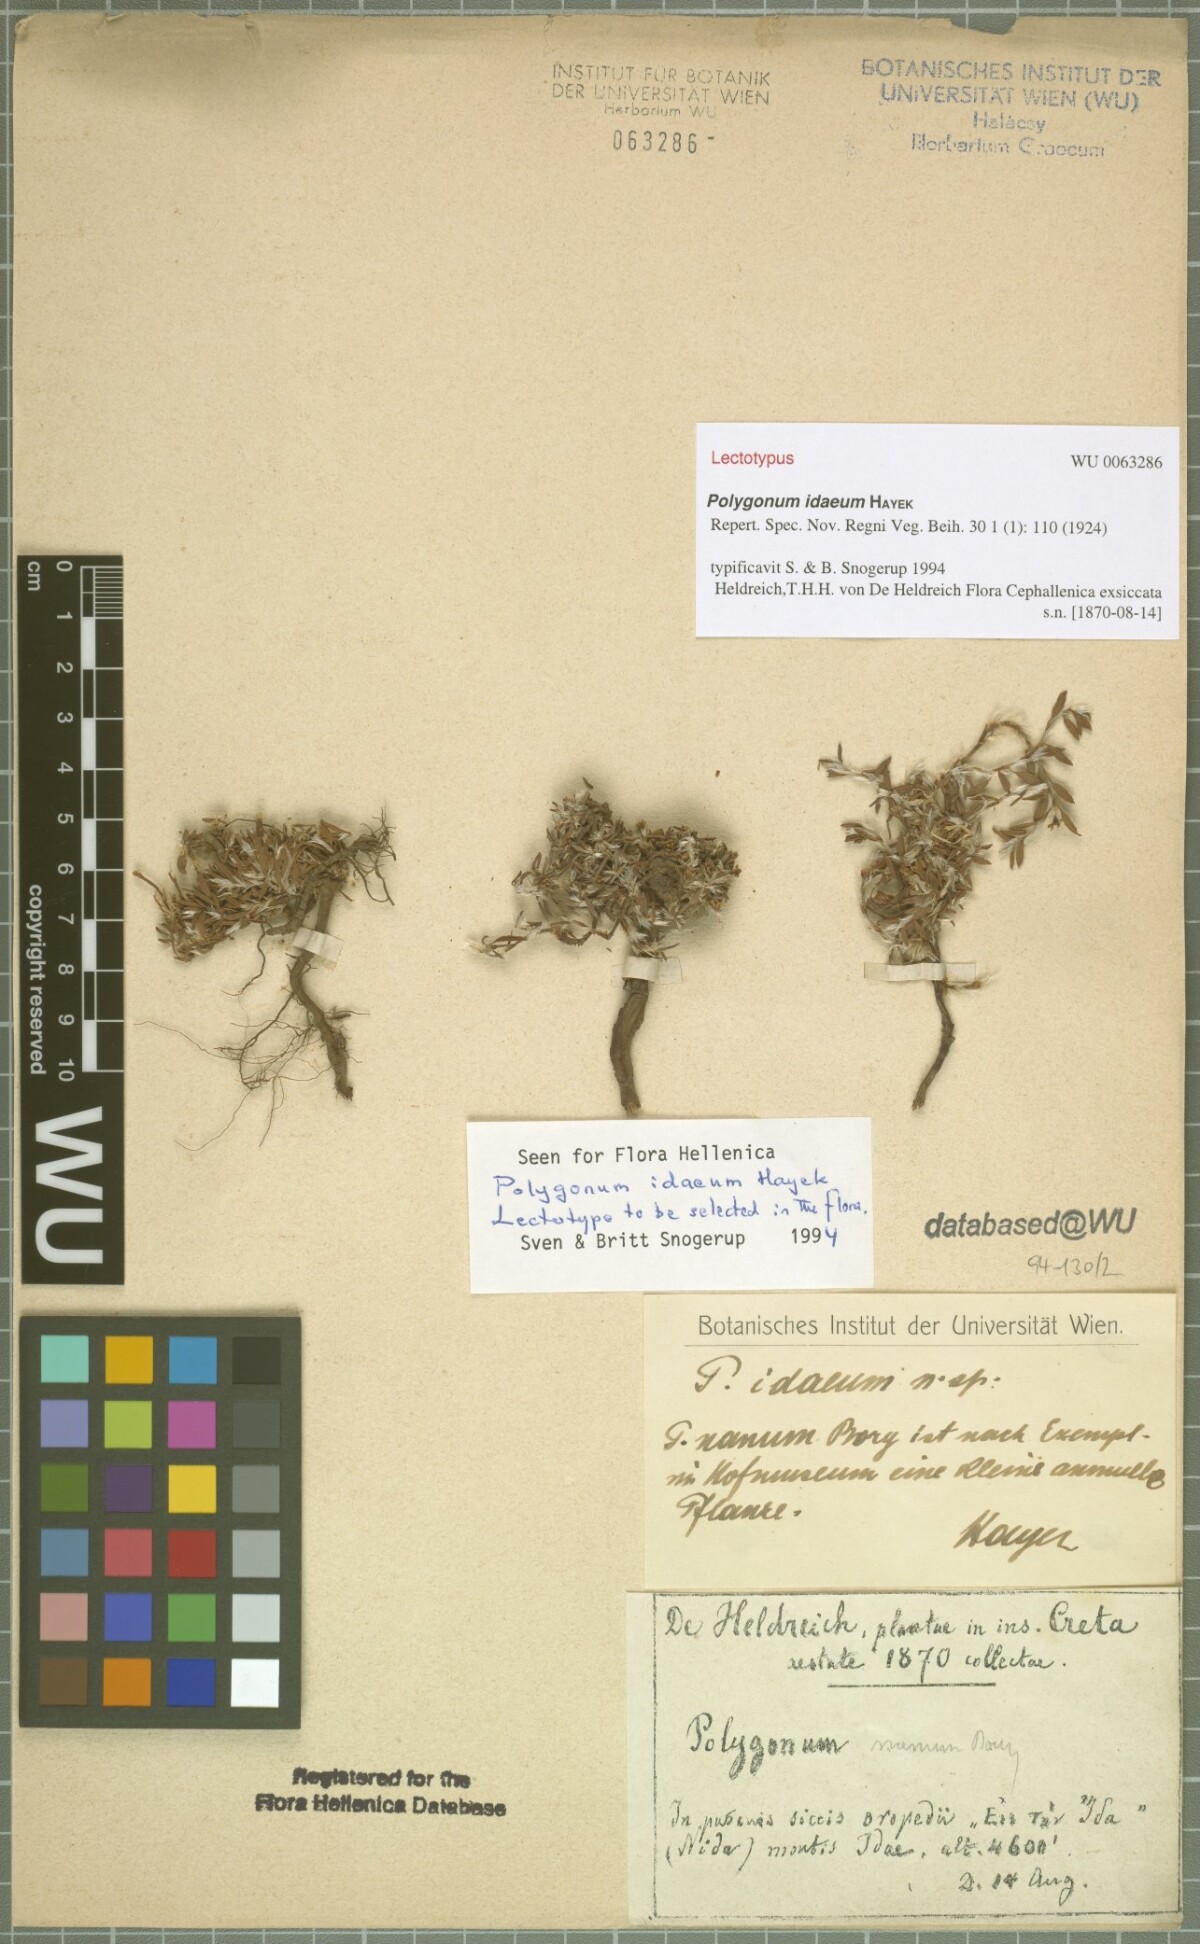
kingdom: Plantae
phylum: Tracheophyta
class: Magnoliopsida
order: Caryophyllales
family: Polygonaceae
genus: Polygonum
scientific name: Polygonum idaeum
